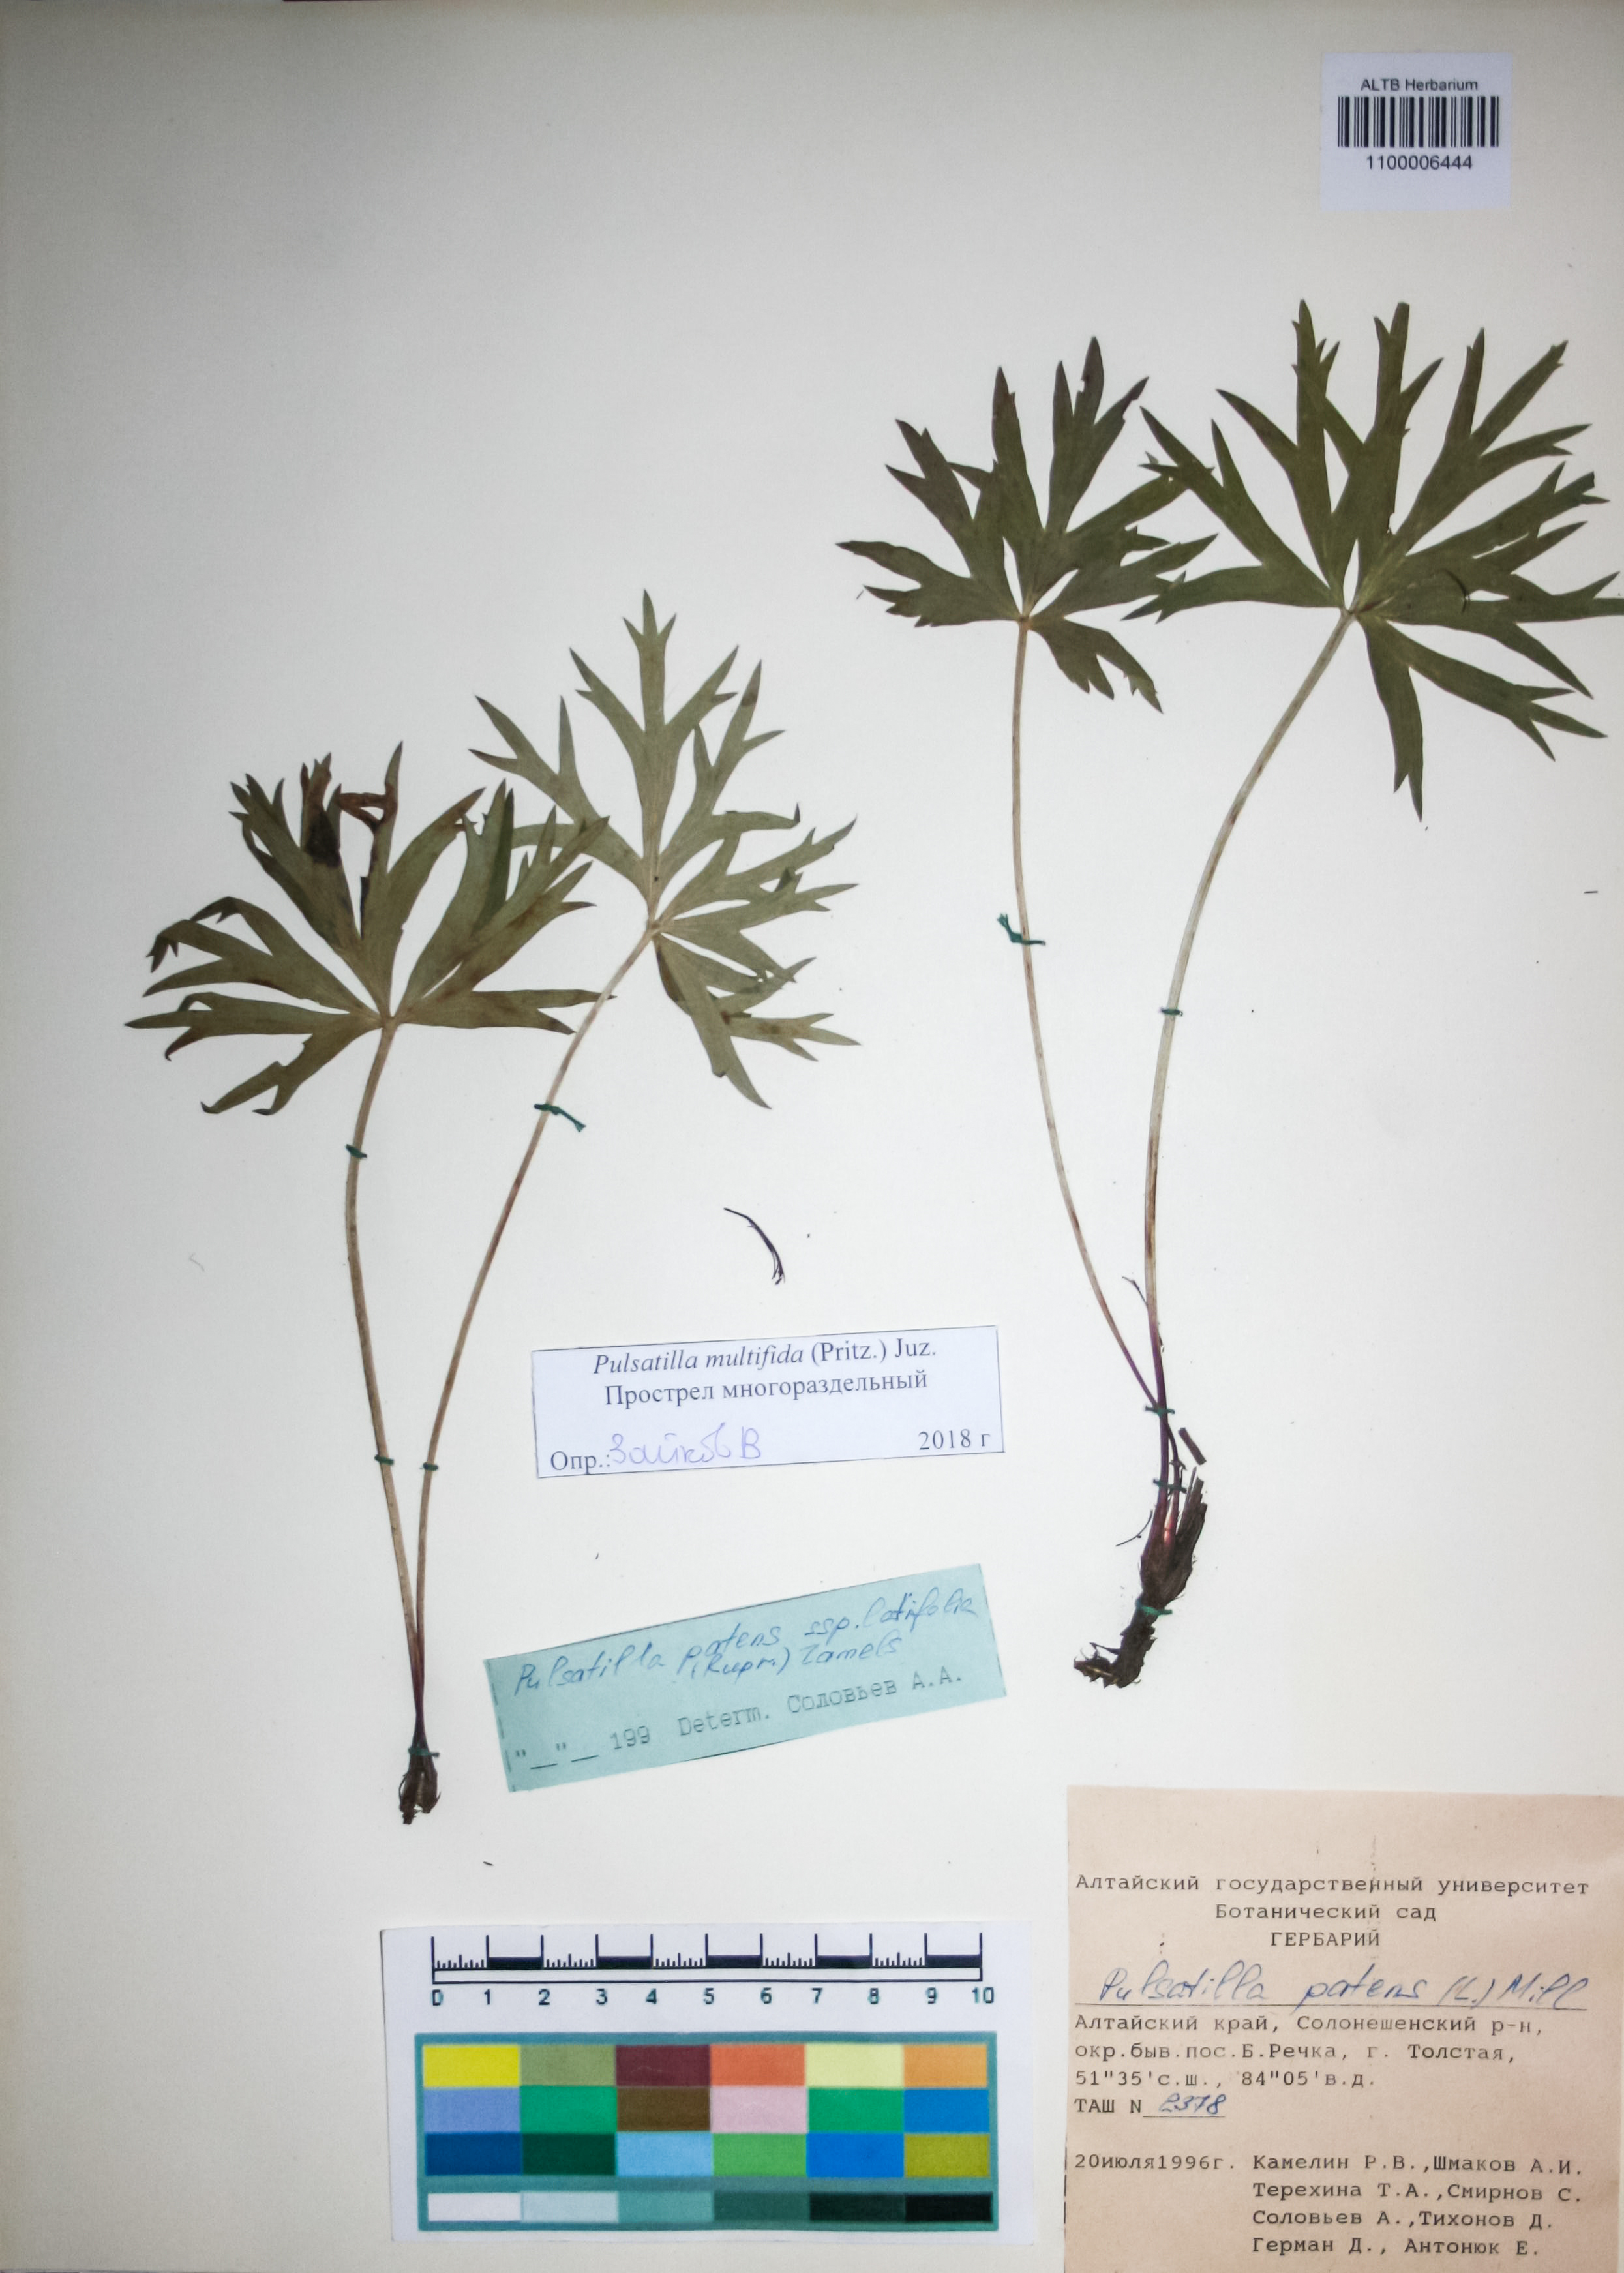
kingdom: Plantae
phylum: Tracheophyta
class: Magnoliopsida
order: Ranunculales
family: Ranunculaceae
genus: Pulsatilla
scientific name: Pulsatilla patens
